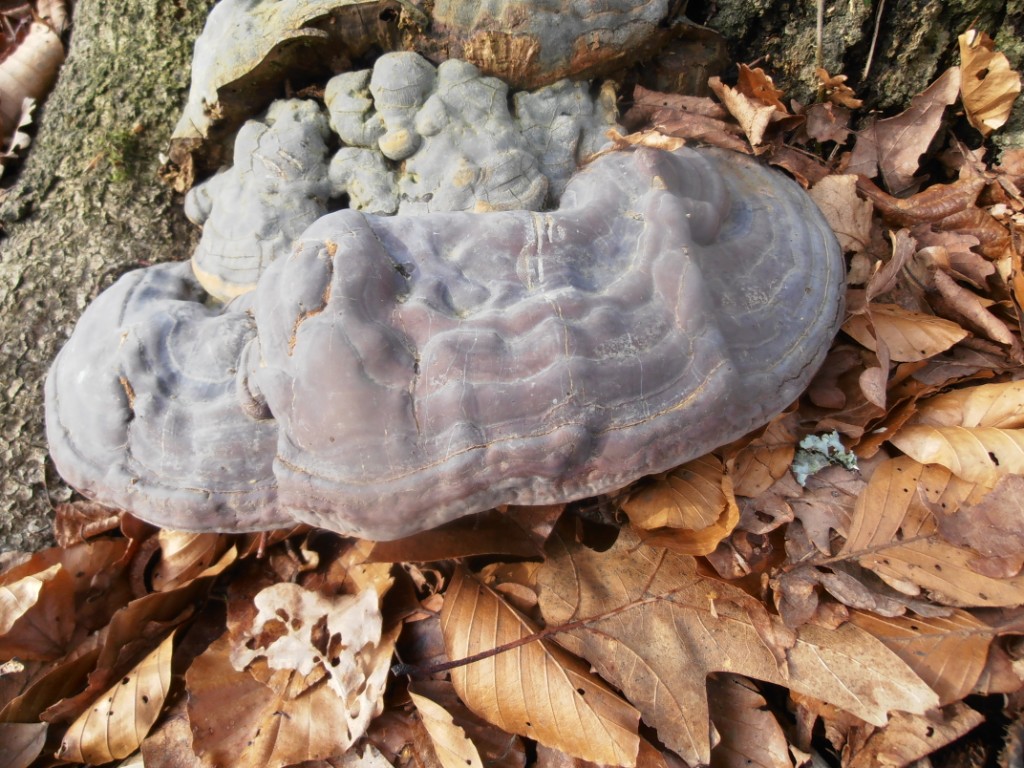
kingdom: Fungi
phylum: Basidiomycota
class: Agaricomycetes
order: Polyporales
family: Polyporaceae
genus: Ganoderma
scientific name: Ganoderma pfeifferi
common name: kobberrød lakporesvamp
